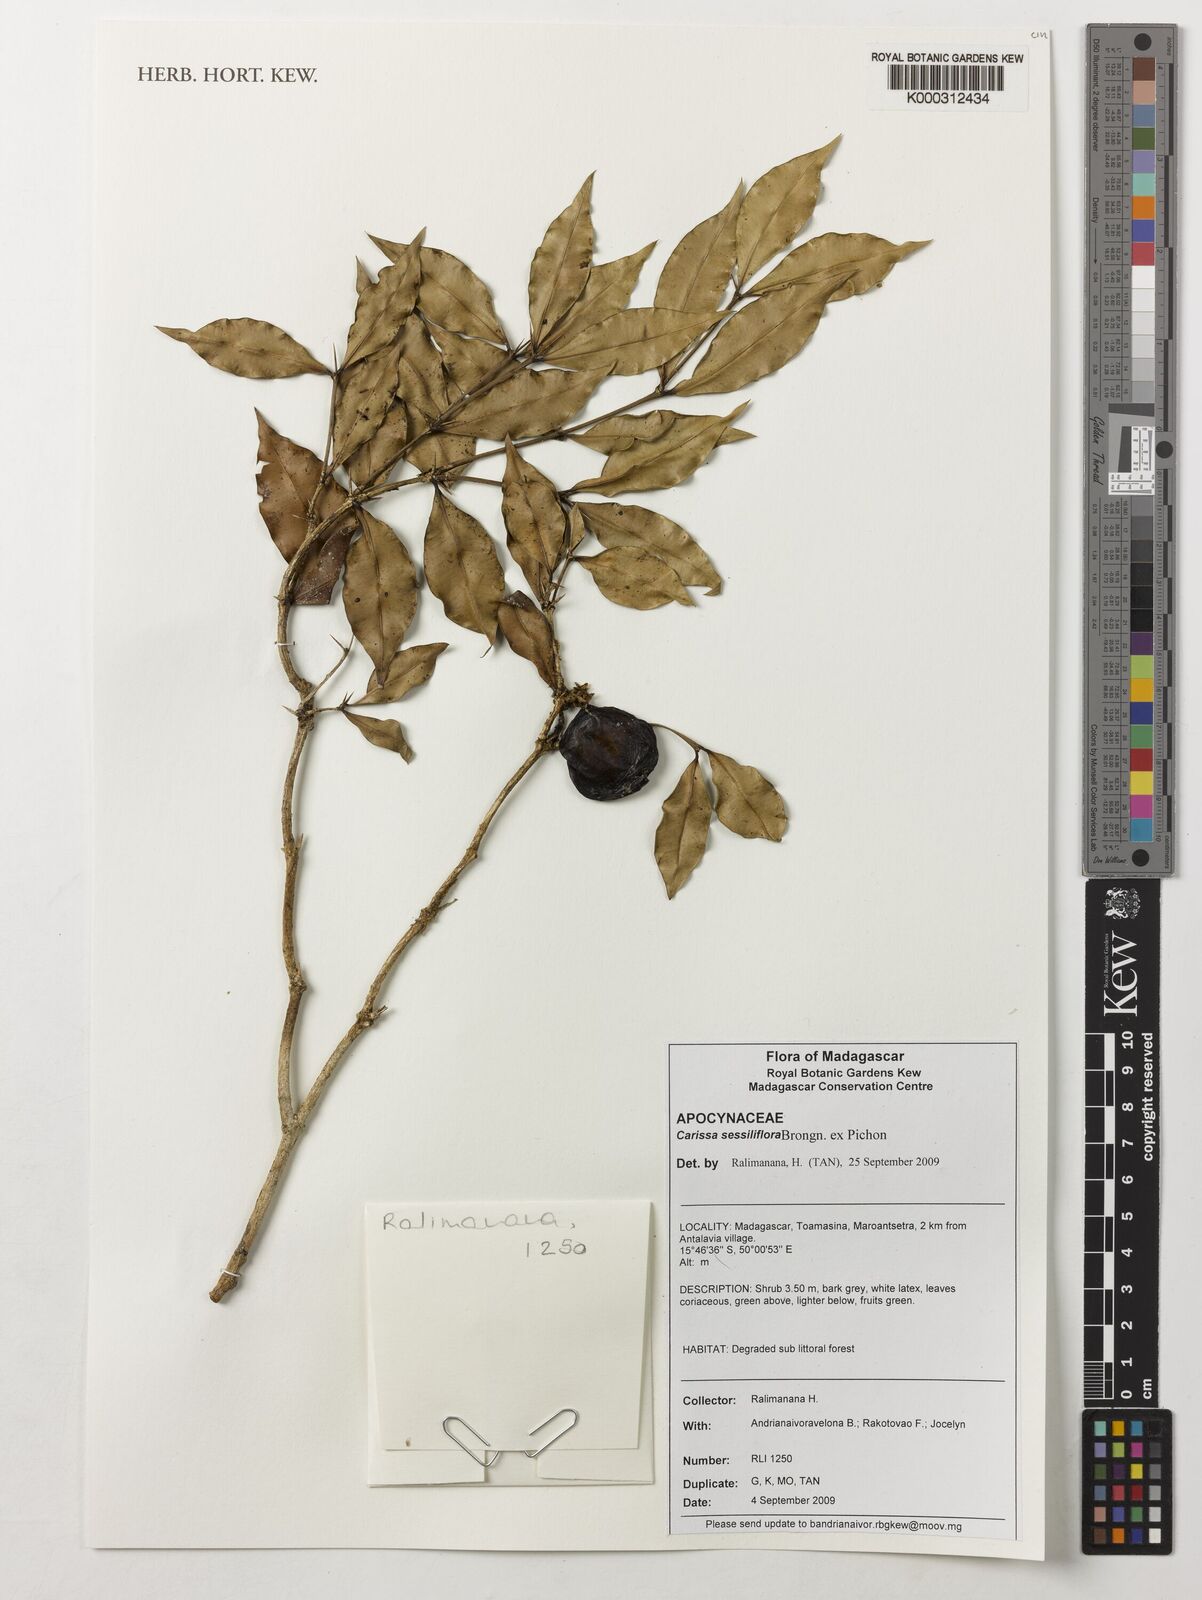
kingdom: Plantae
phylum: Tracheophyta
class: Magnoliopsida
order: Gentianales
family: Apocynaceae
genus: Carissa
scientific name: Carissa boiviniana
